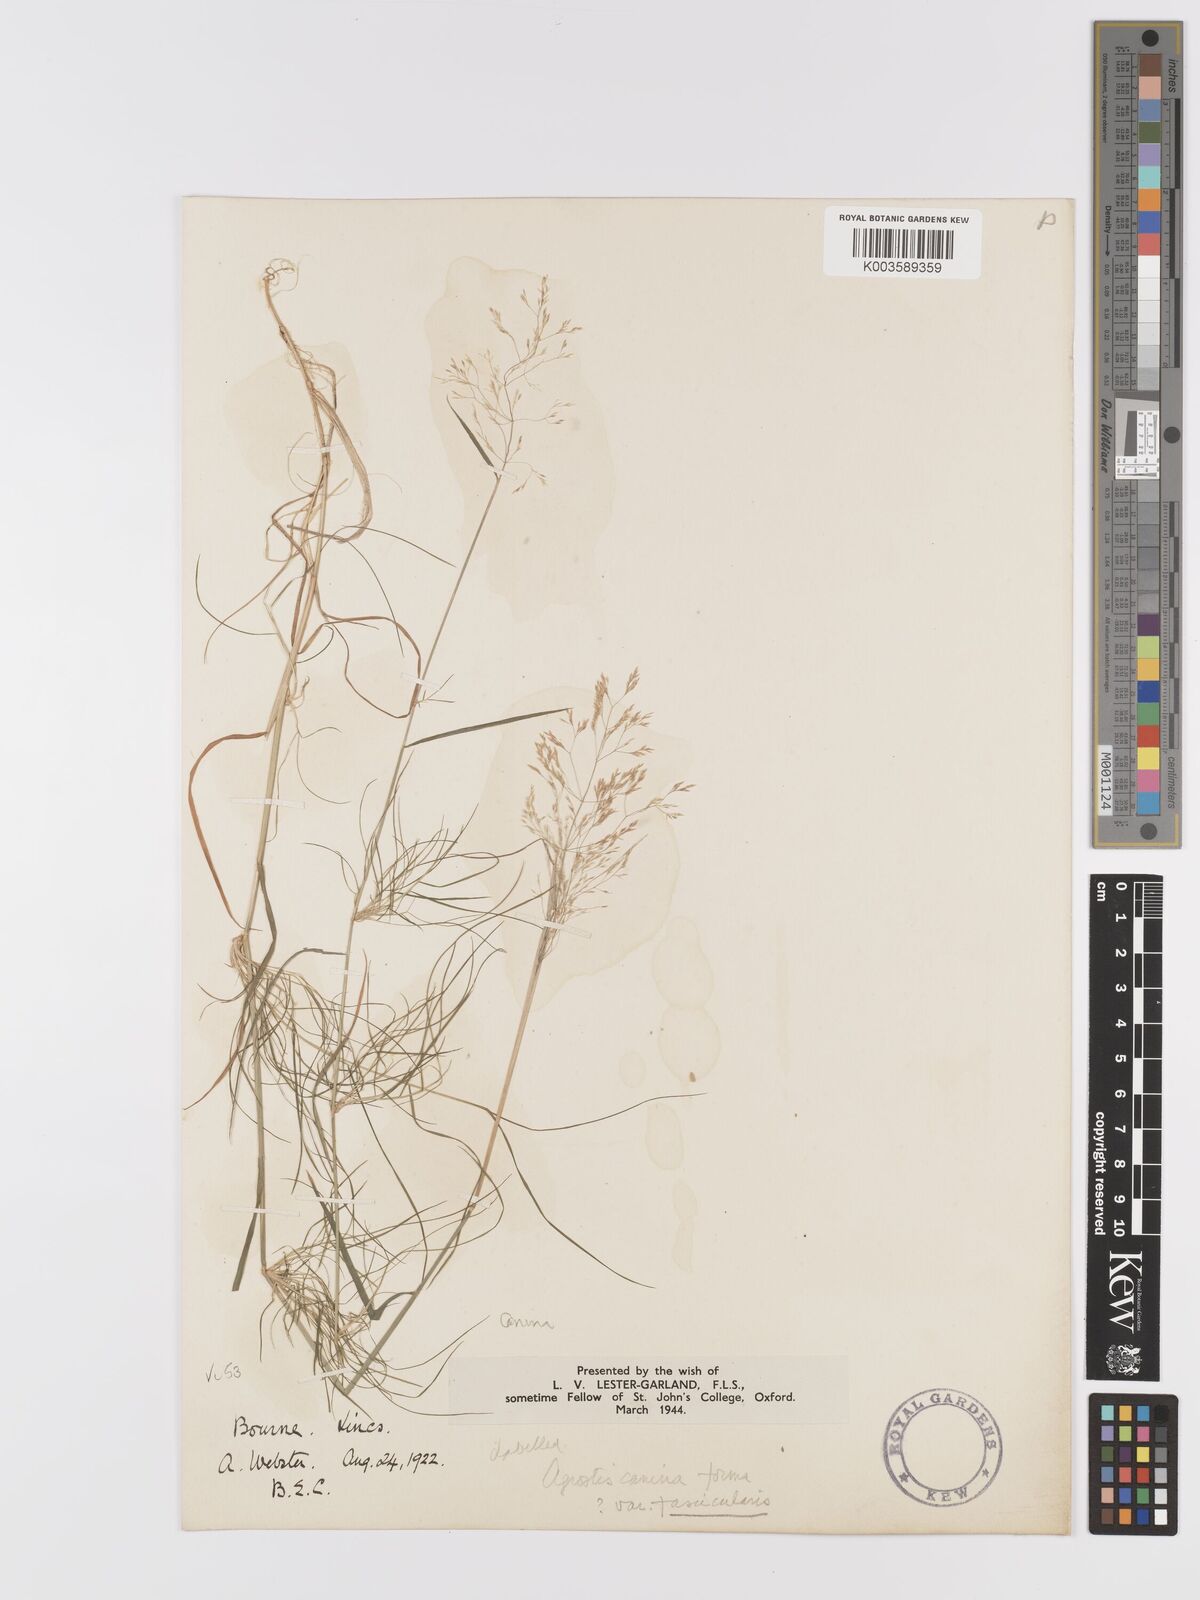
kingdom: Plantae
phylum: Tracheophyta
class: Liliopsida
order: Poales
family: Poaceae
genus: Agrostis
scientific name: Agrostis canina
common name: Velvet bent
